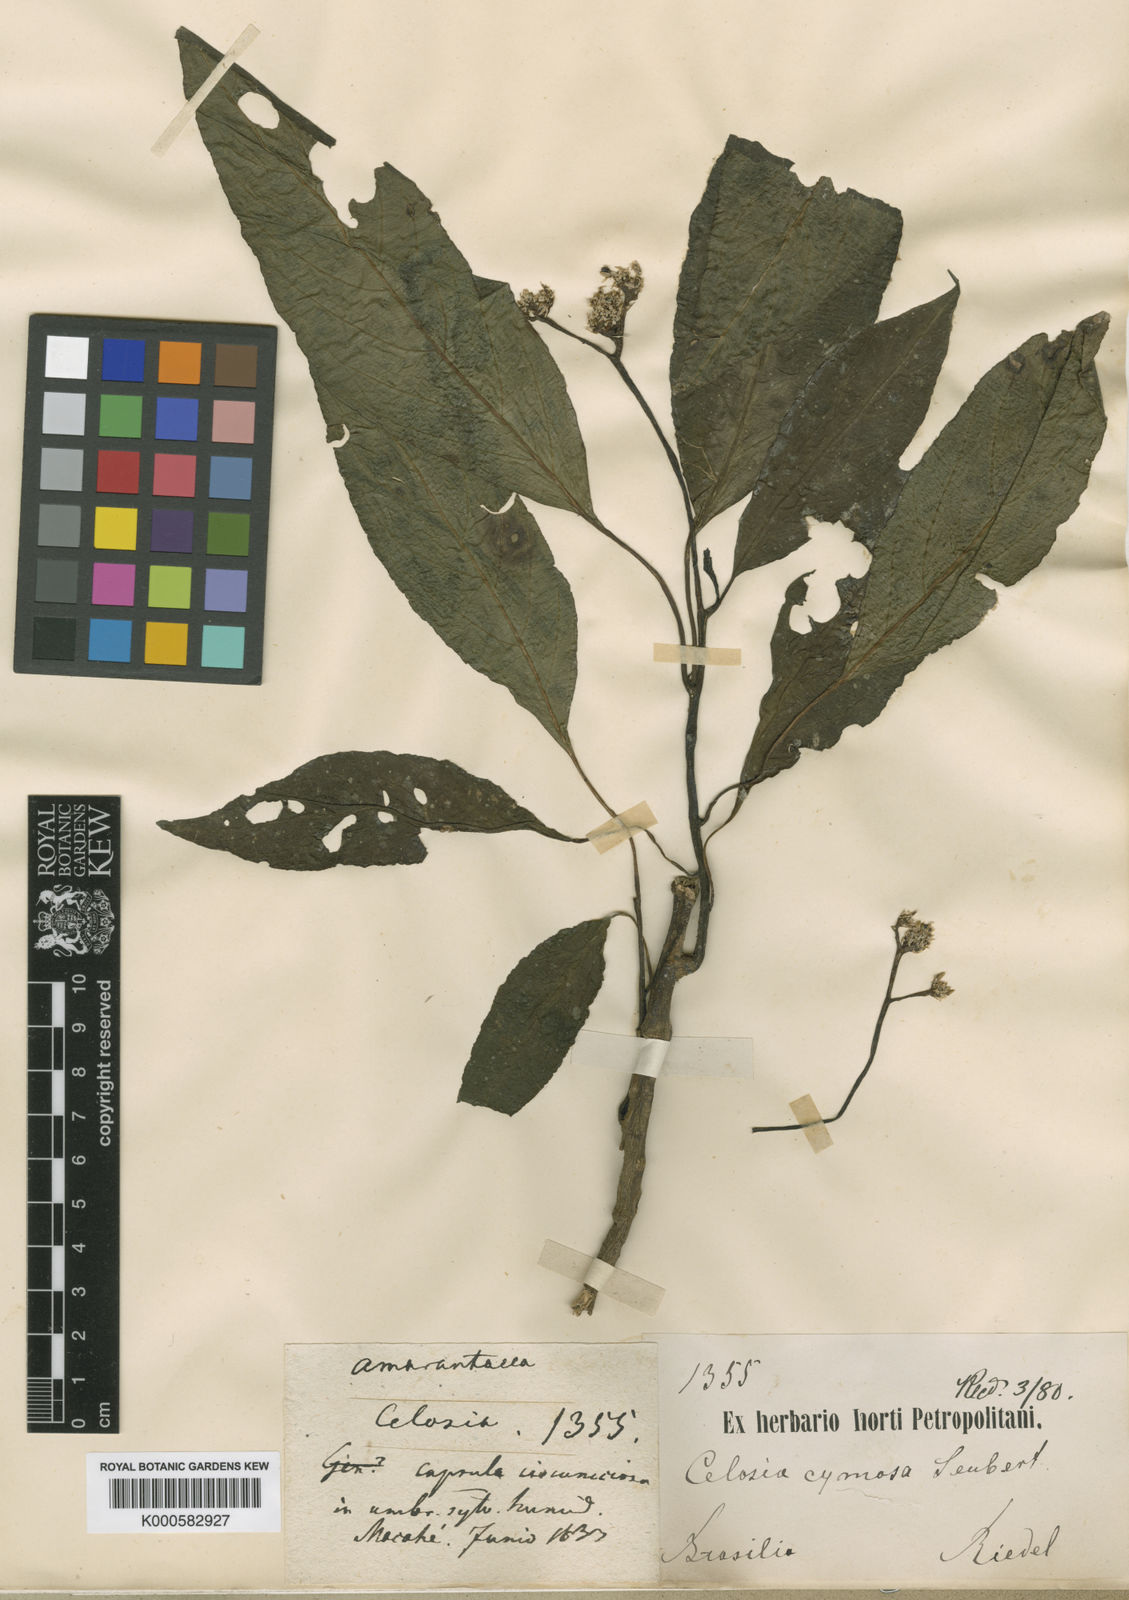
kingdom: Plantae
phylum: Tracheophyta
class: Magnoliopsida
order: Caryophyllales
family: Amaranthaceae
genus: Celosia
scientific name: Celosia corymbifera
